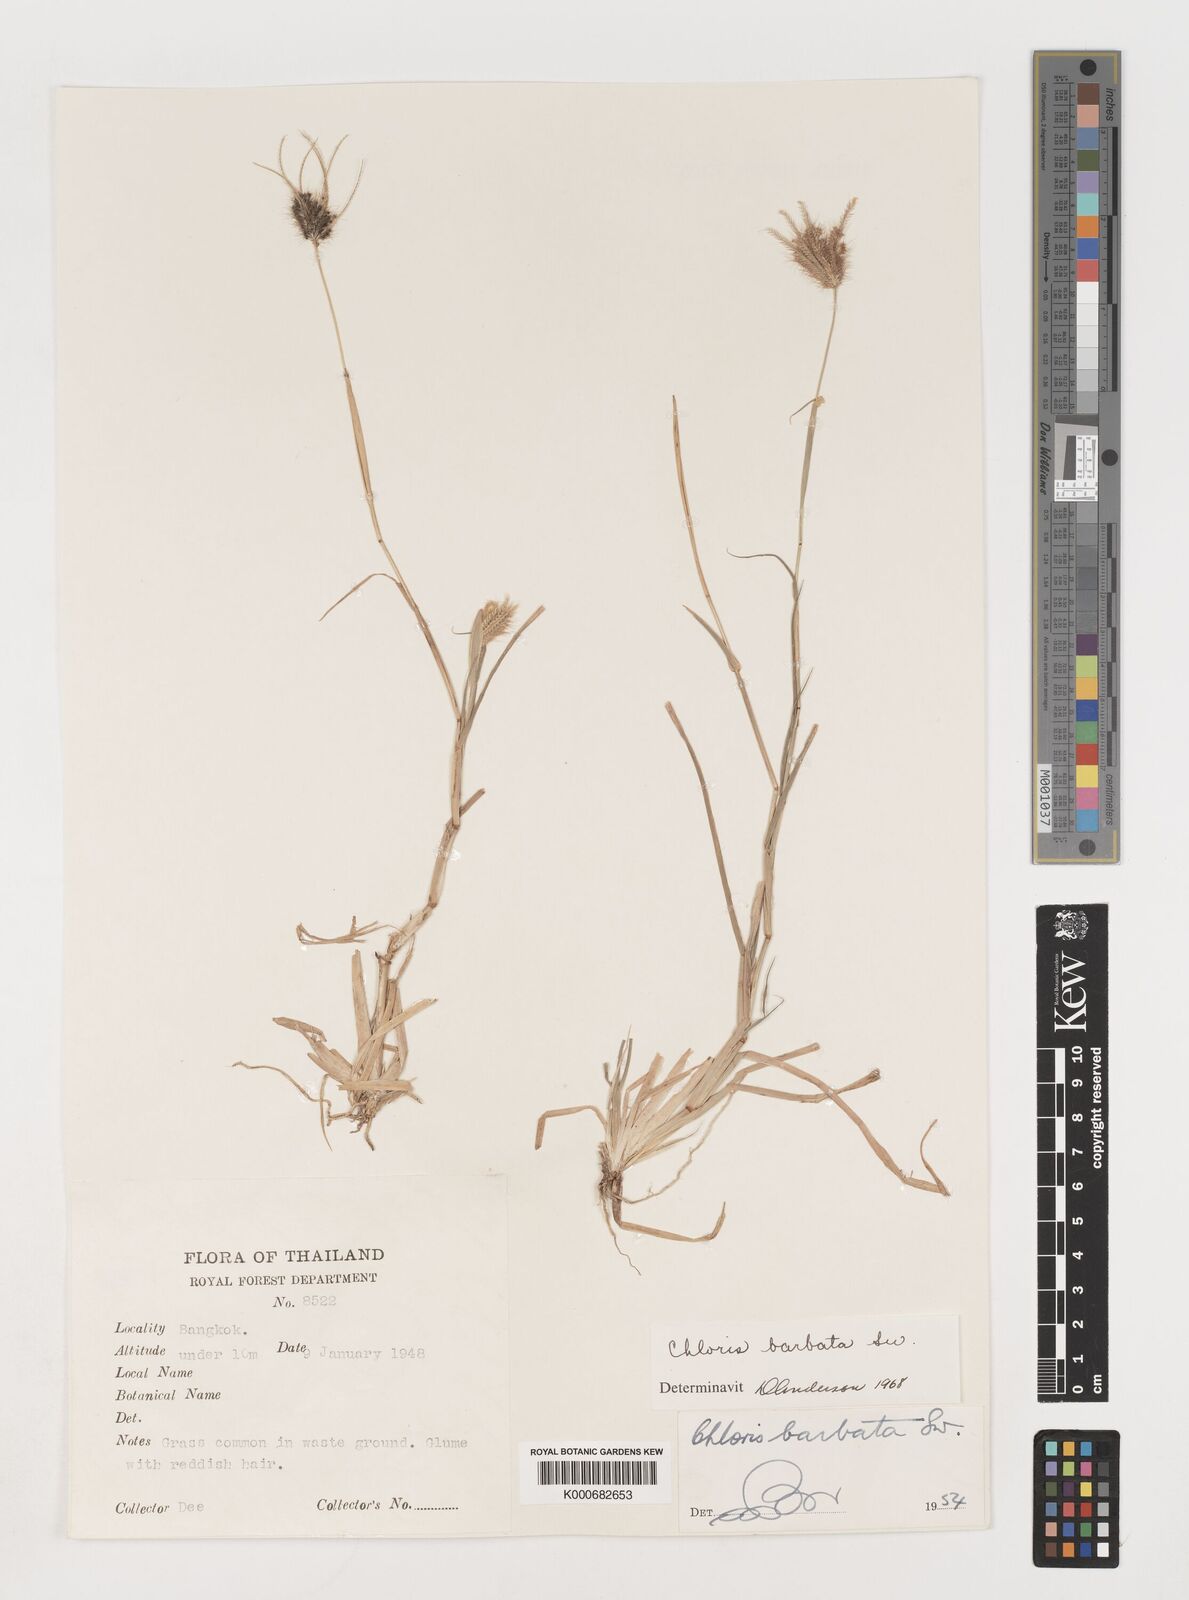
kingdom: Plantae
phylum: Tracheophyta
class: Liliopsida
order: Poales
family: Poaceae
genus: Chloris
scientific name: Chloris barbata
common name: Swollen fingergrass
